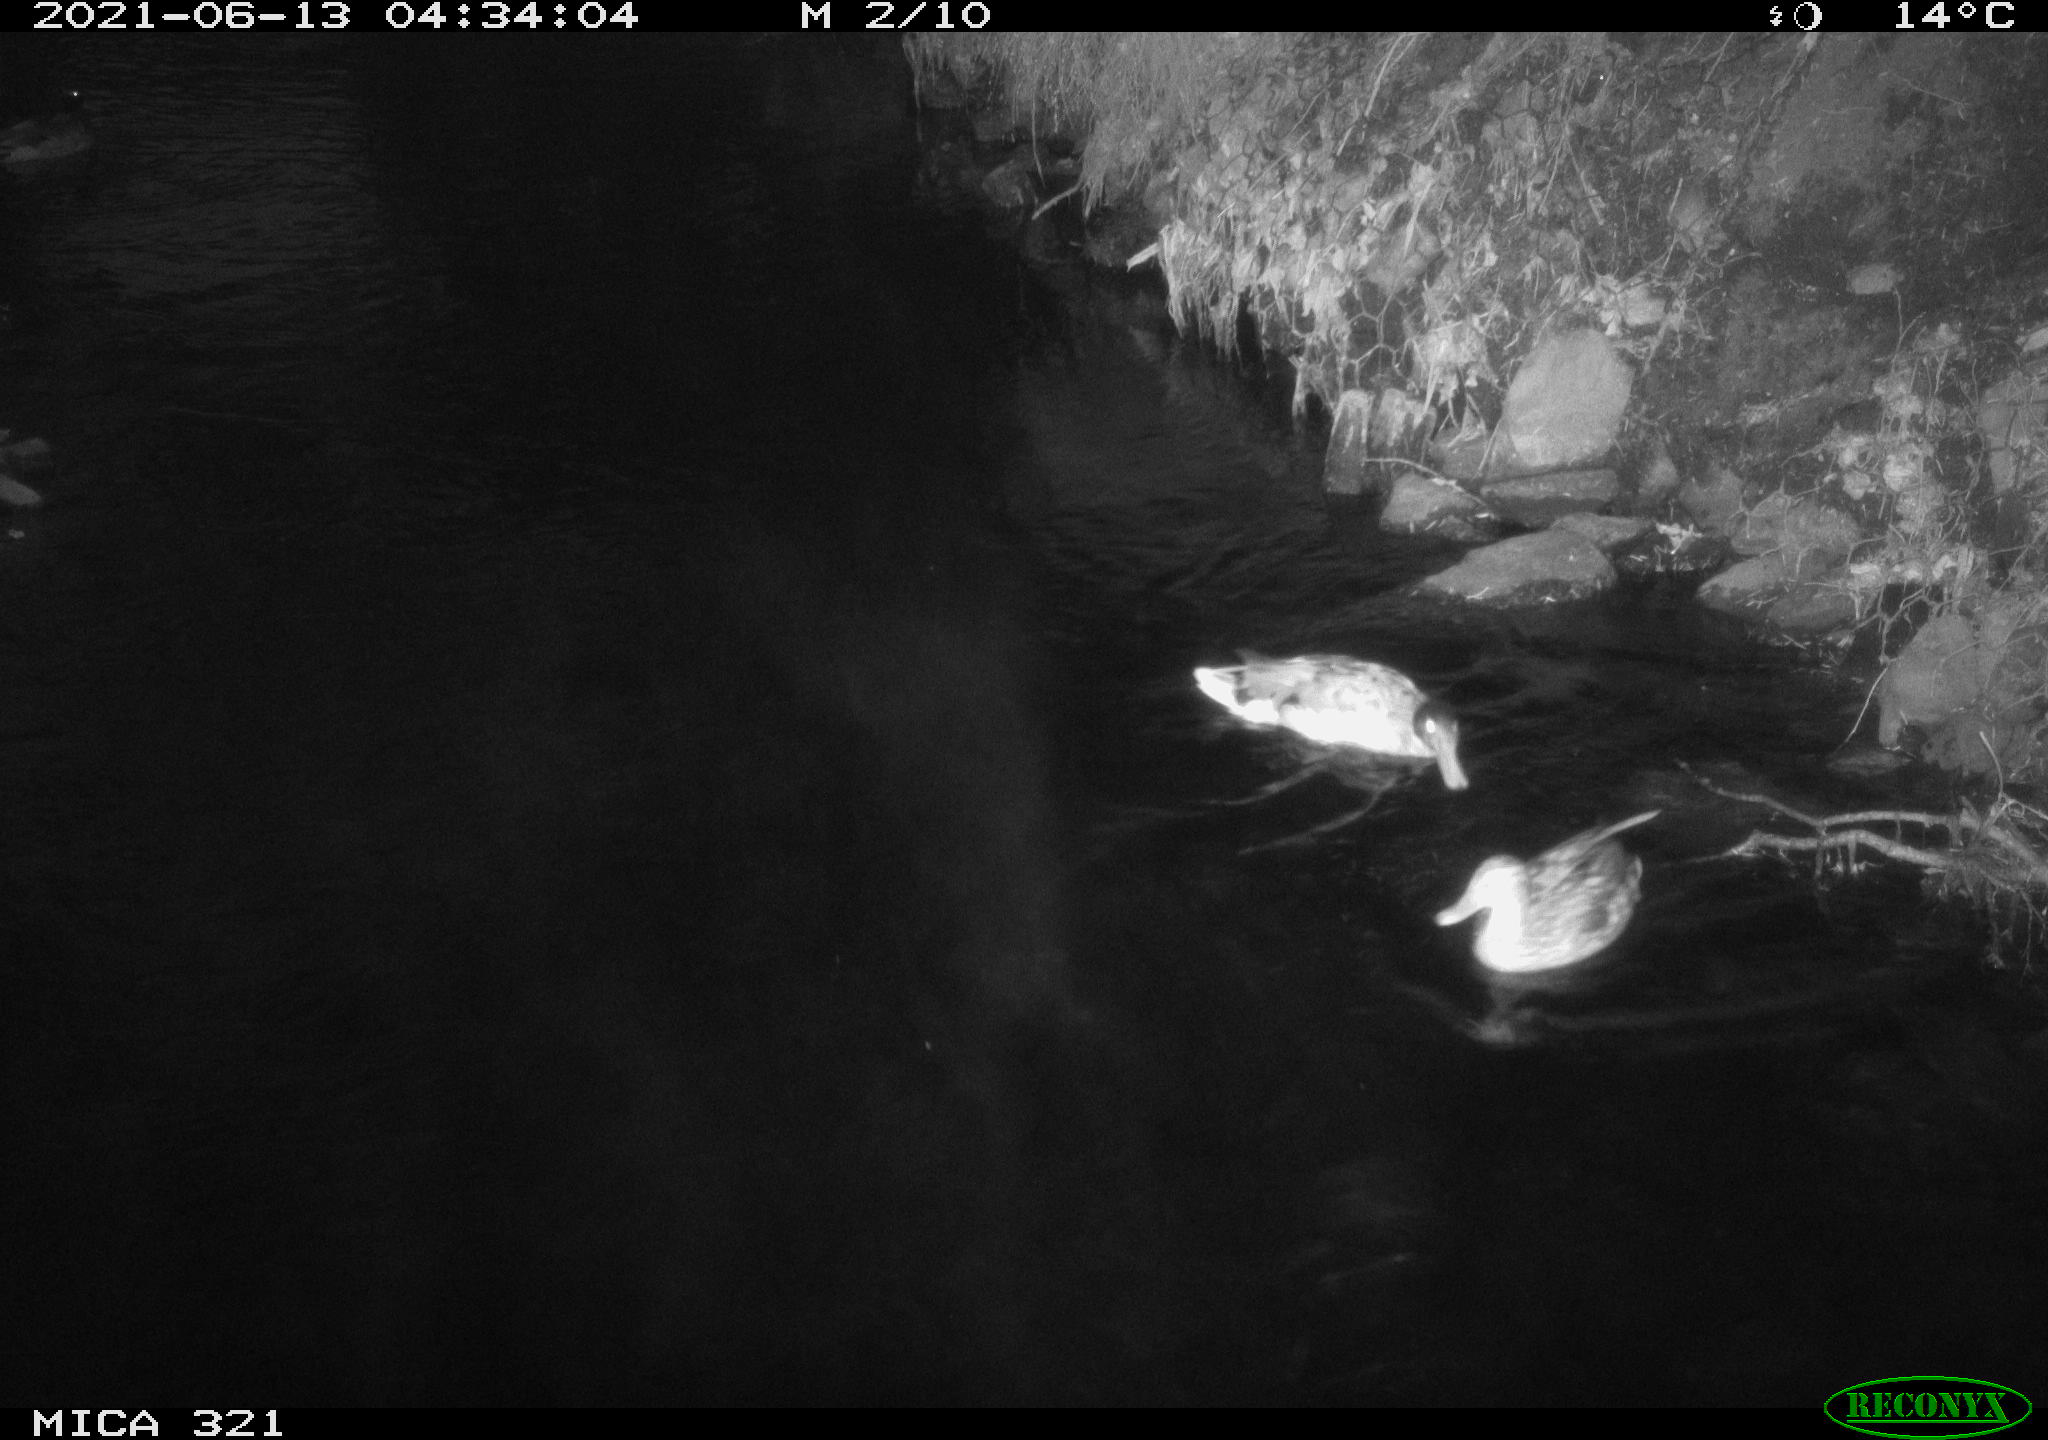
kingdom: Animalia
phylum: Chordata
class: Aves
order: Anseriformes
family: Anatidae
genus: Mareca
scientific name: Mareca strepera
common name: Gadwall
